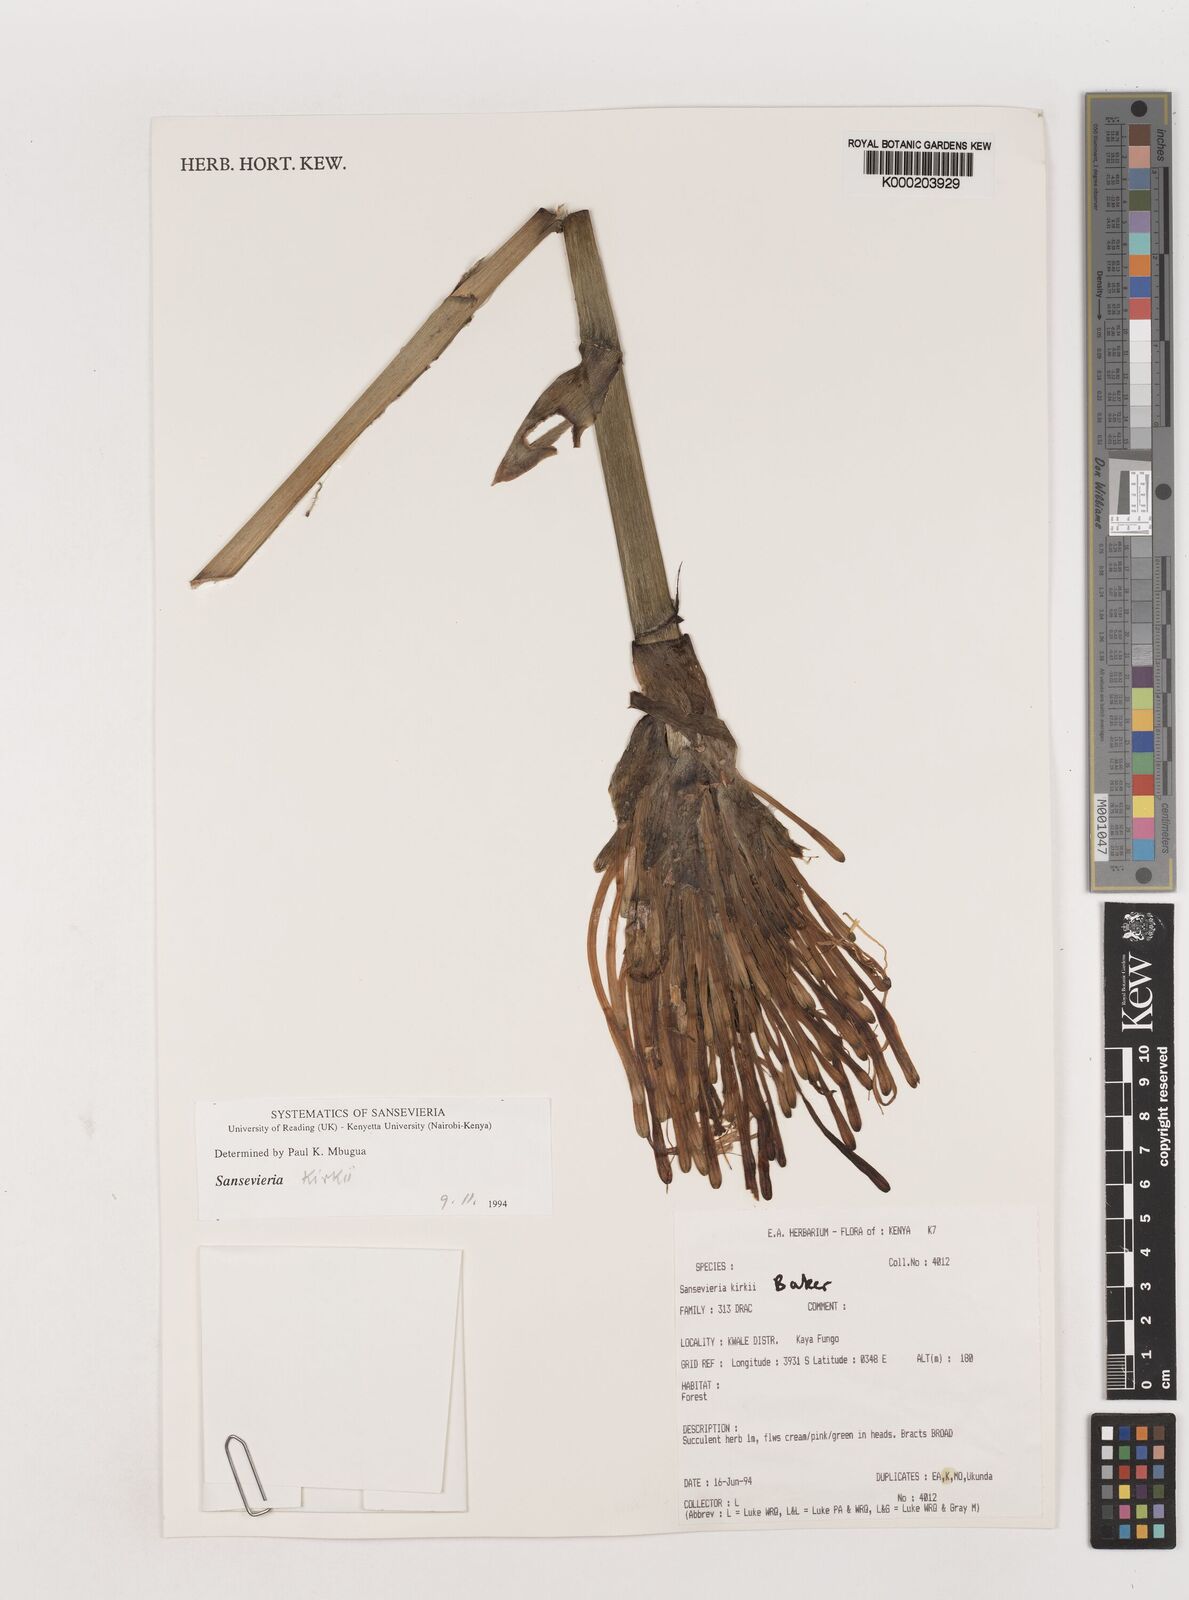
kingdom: Plantae
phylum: Tracheophyta
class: Liliopsida
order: Asparagales
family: Asparagaceae
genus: Dracaena
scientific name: Dracaena pethera
